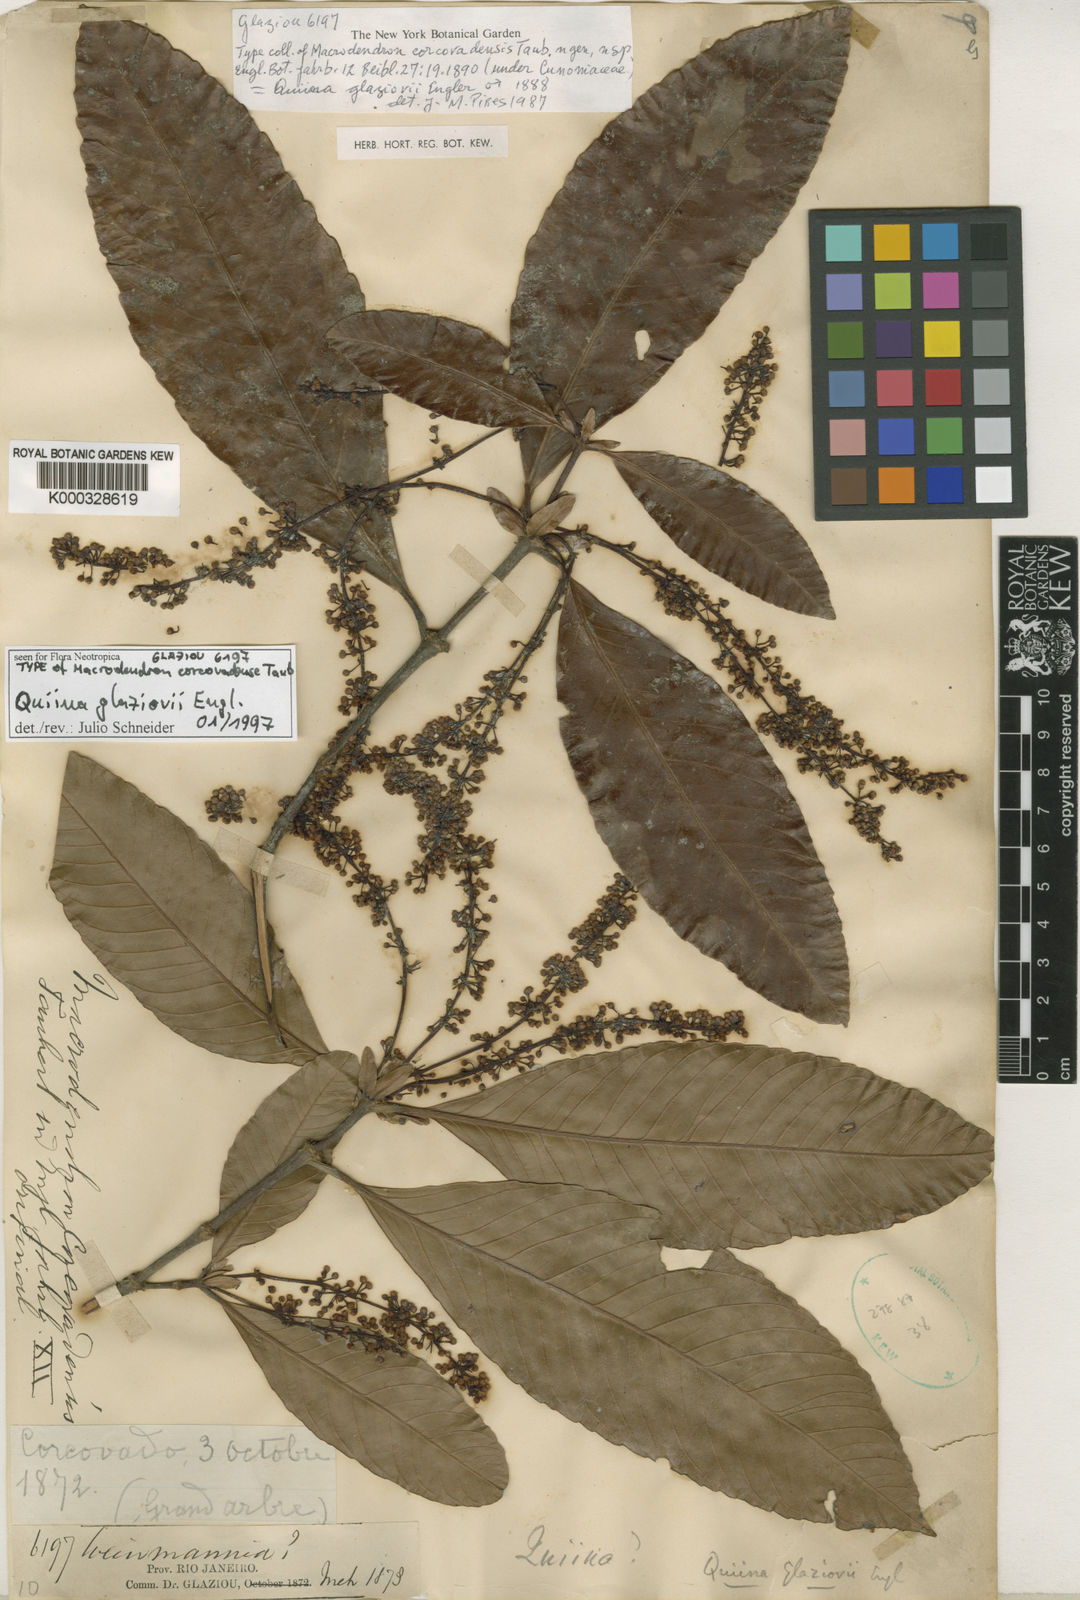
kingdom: Plantae
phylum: Tracheophyta
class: Magnoliopsida
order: Malpighiales
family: Quiinaceae
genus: Quiina
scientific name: Quiina glaziovii
